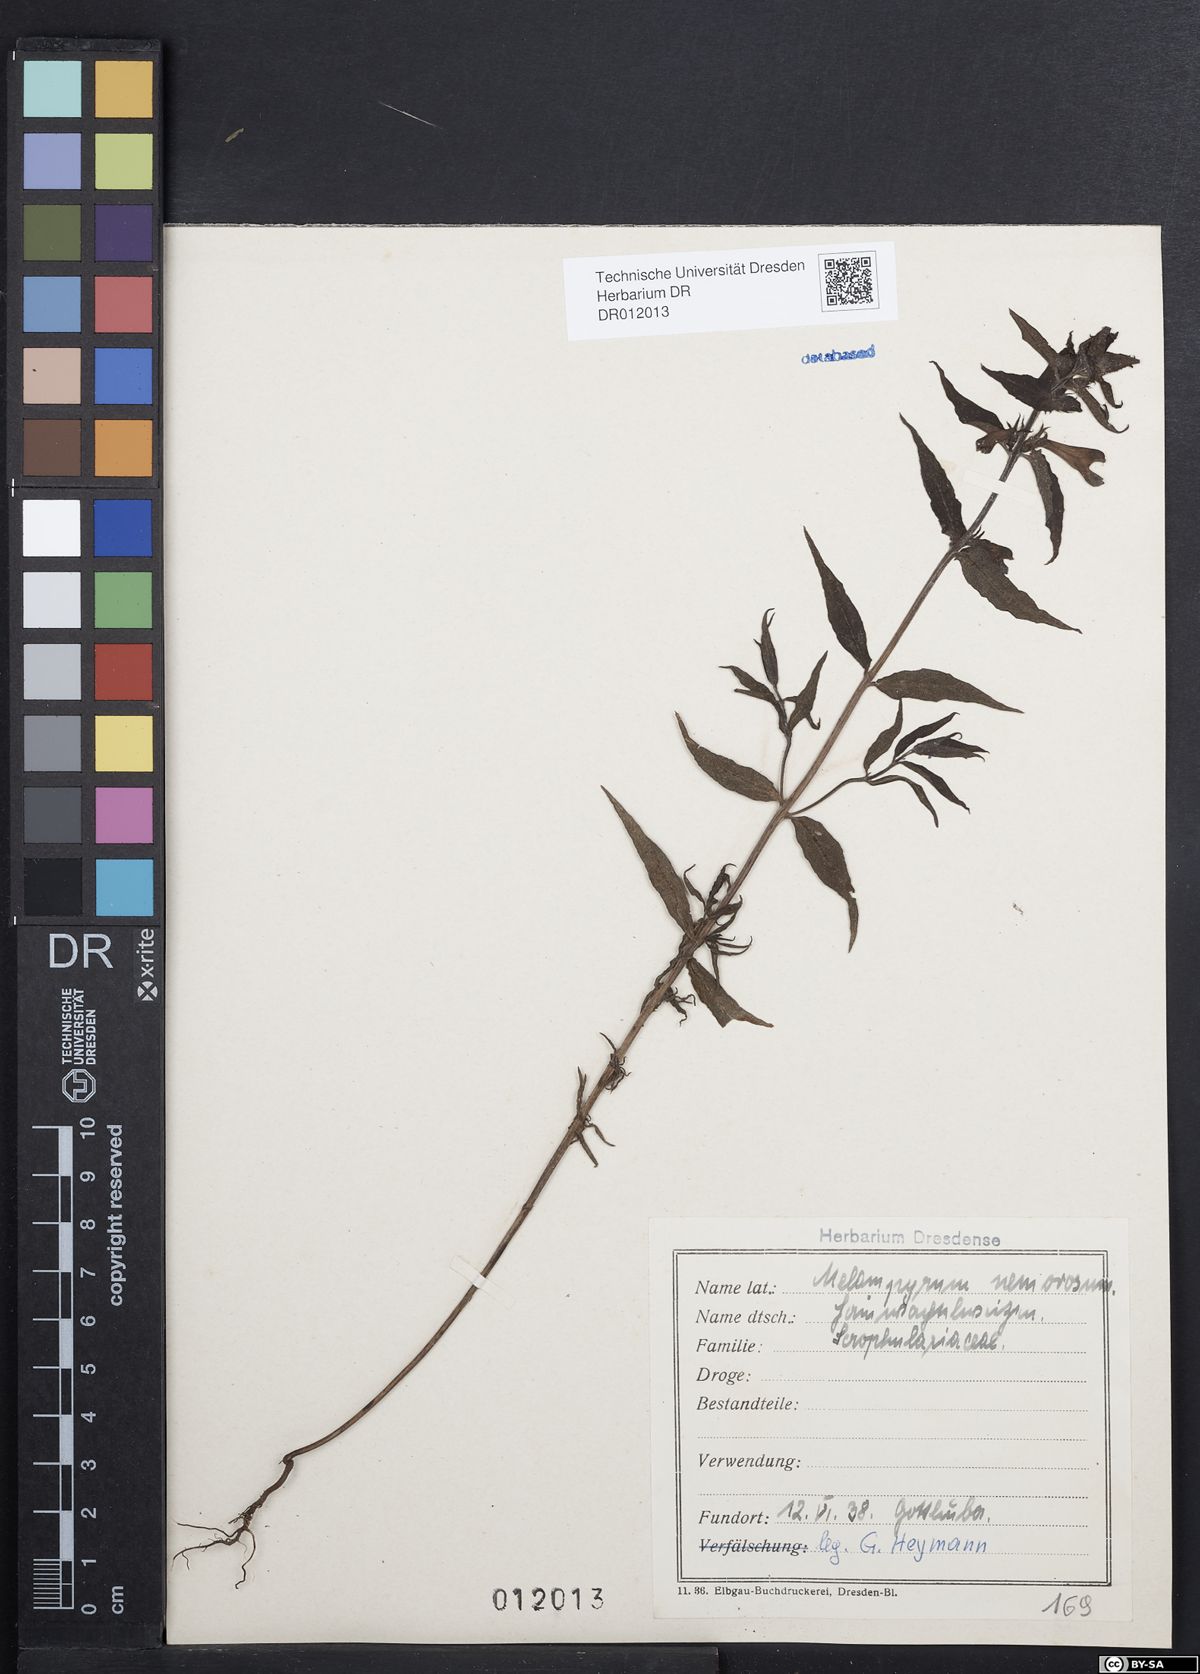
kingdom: Plantae
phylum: Tracheophyta
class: Magnoliopsida
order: Lamiales
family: Orobanchaceae
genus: Melampyrum
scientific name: Melampyrum nemorosum
